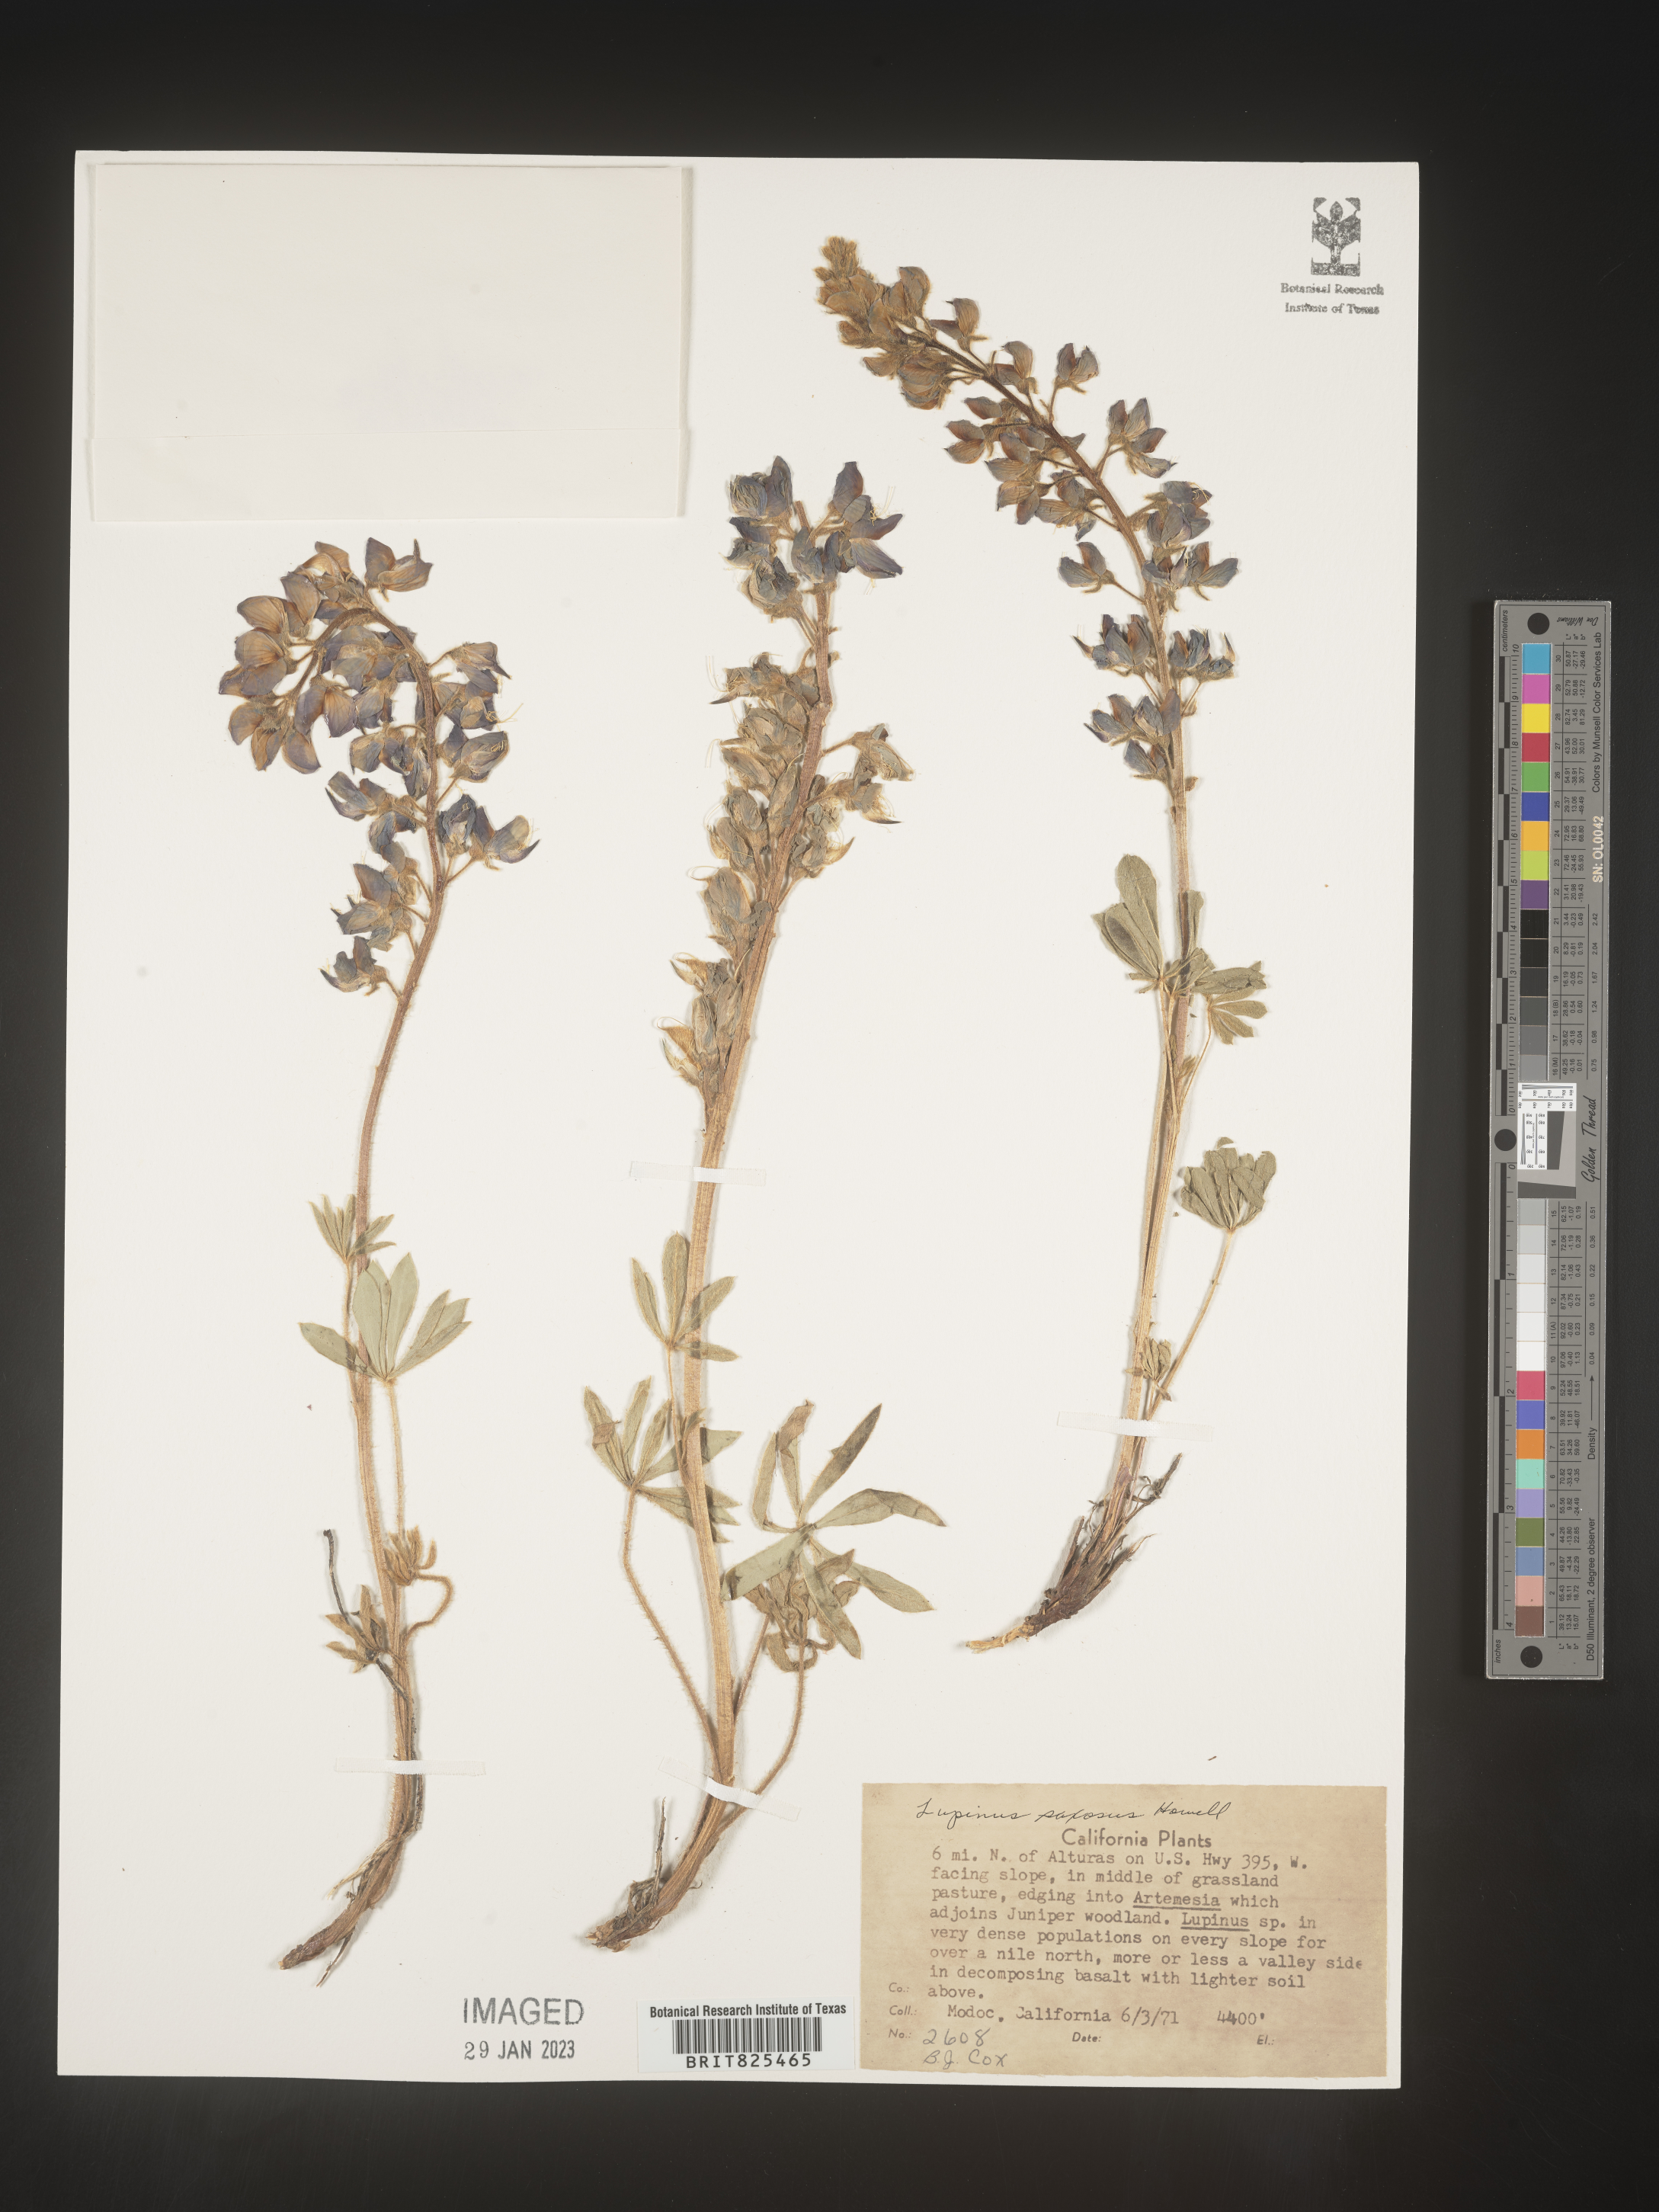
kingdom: Plantae
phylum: Tracheophyta
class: Magnoliopsida
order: Fabales
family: Fabaceae
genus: Lupinus
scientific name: Lupinus
